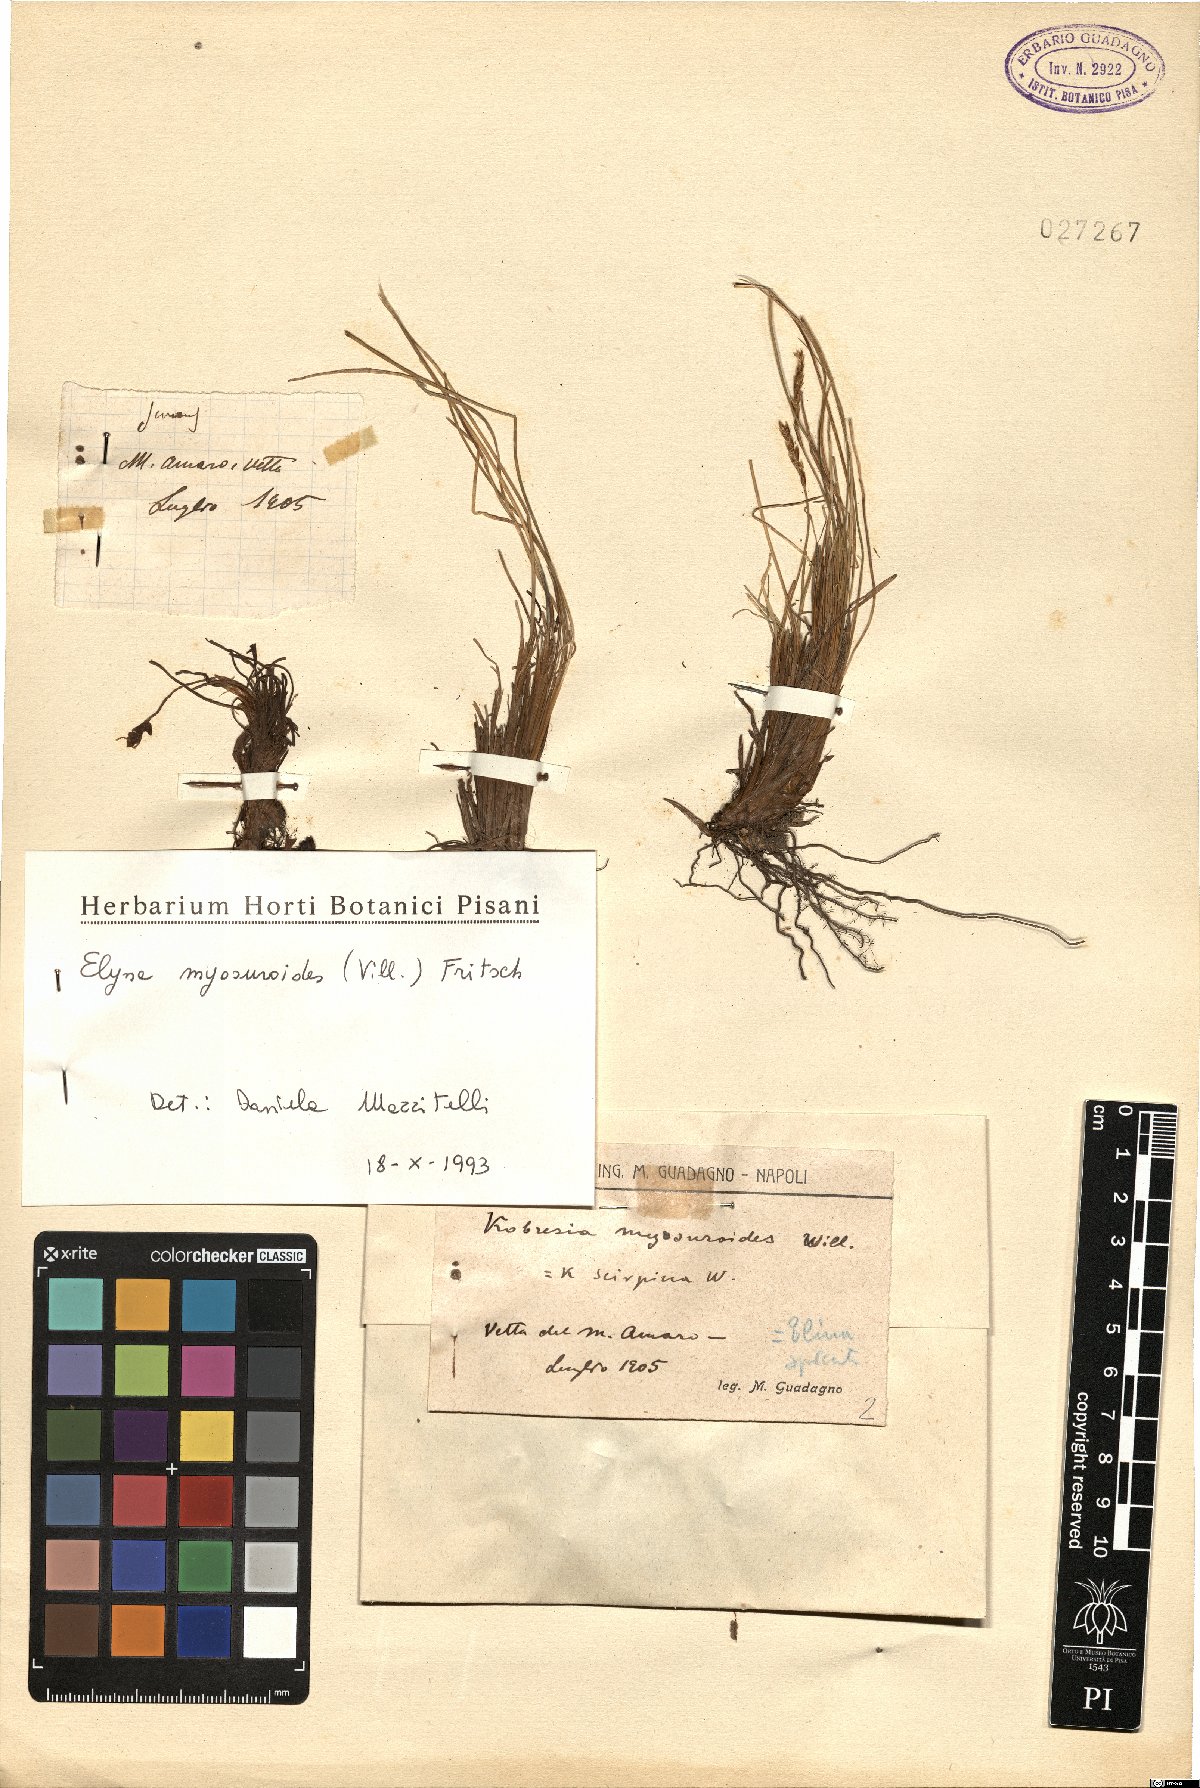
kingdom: Plantae
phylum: Tracheophyta
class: Liliopsida
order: Poales
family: Cyperaceae
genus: Carex
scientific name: Carex myosuroides
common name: Bellard's bog sedge
